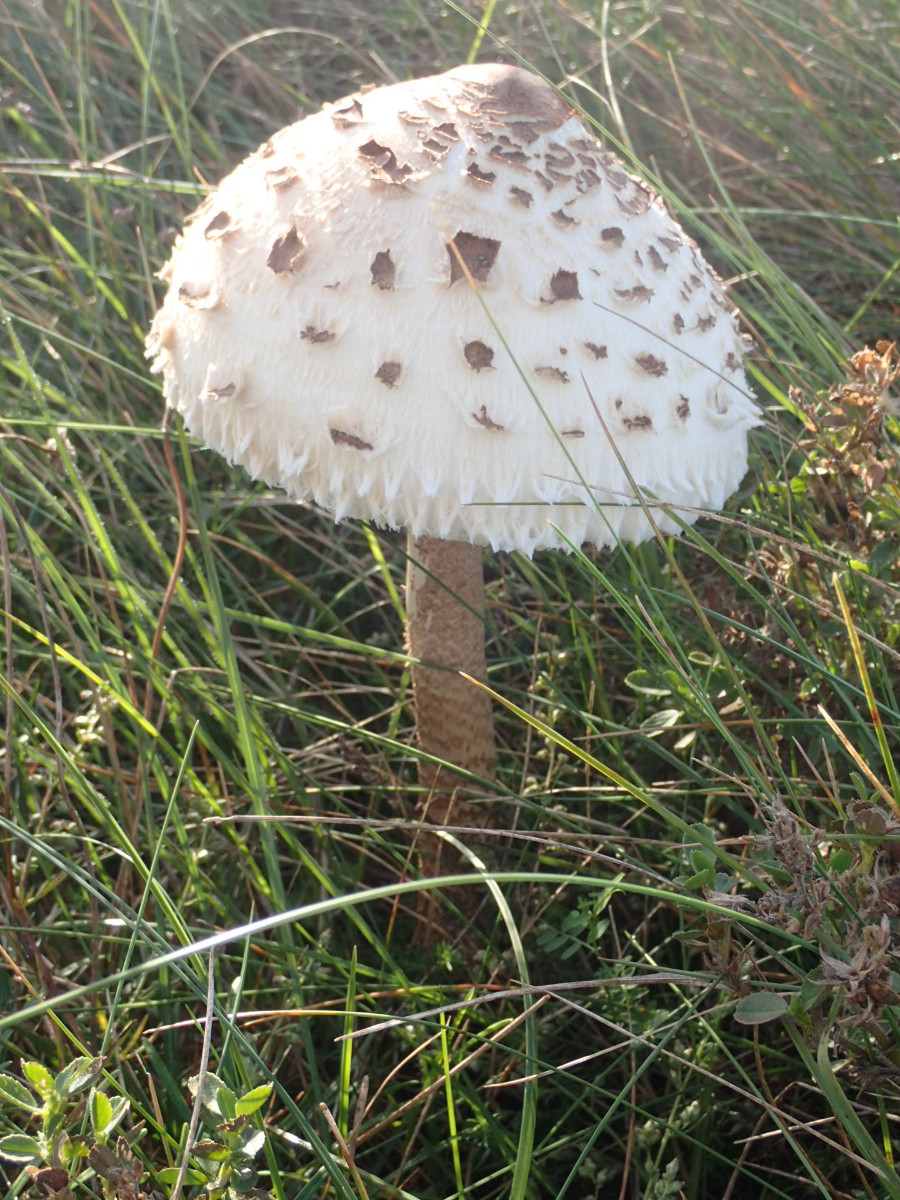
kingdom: Fungi
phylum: Basidiomycota
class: Agaricomycetes
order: Agaricales
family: Agaricaceae
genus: Macrolepiota
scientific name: Macrolepiota procera
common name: stor kæmpeparasolhat
